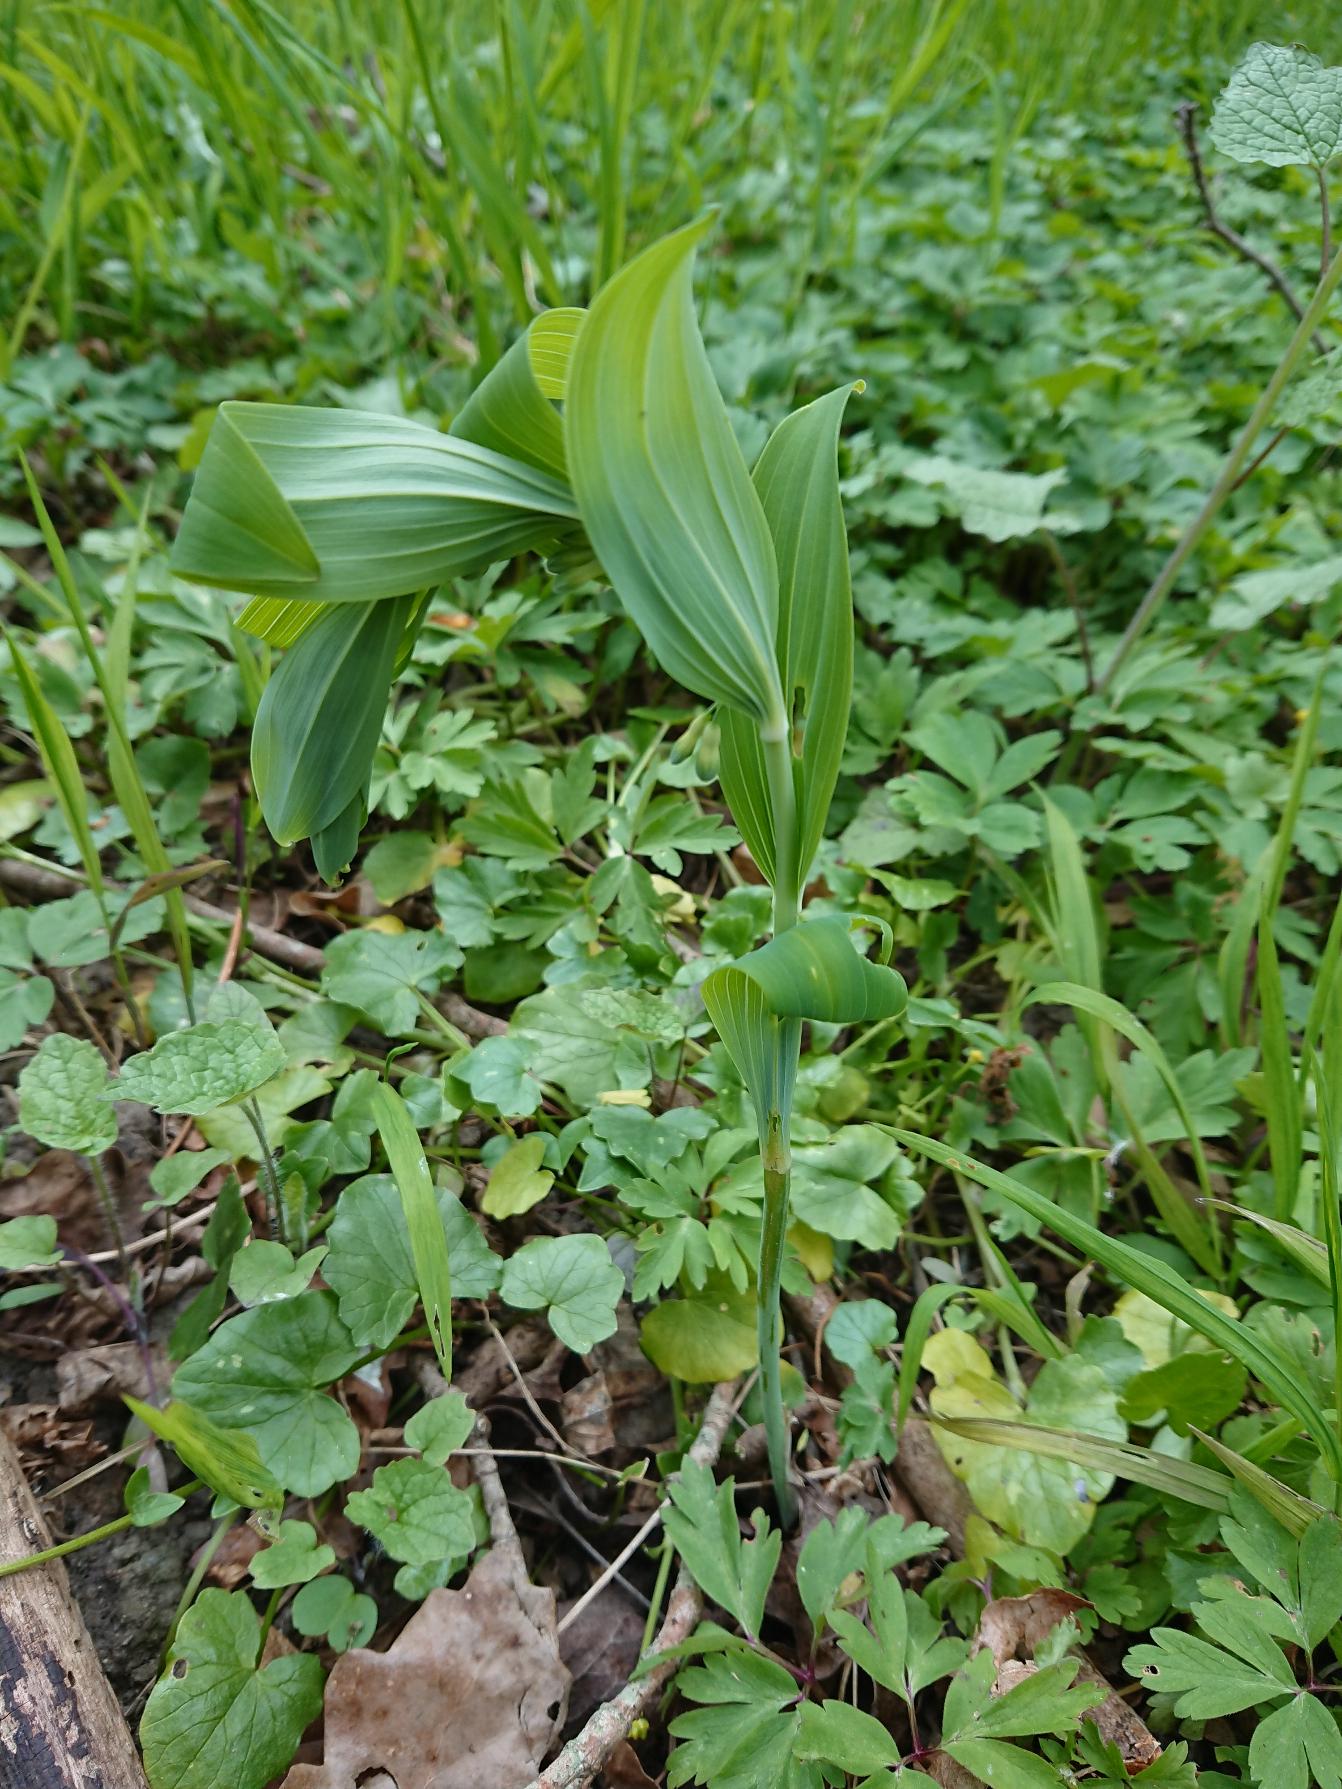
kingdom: Plantae
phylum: Tracheophyta
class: Liliopsida
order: Asparagales
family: Asparagaceae
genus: Polygonatum
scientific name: Polygonatum multiflorum
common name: Stor konval
